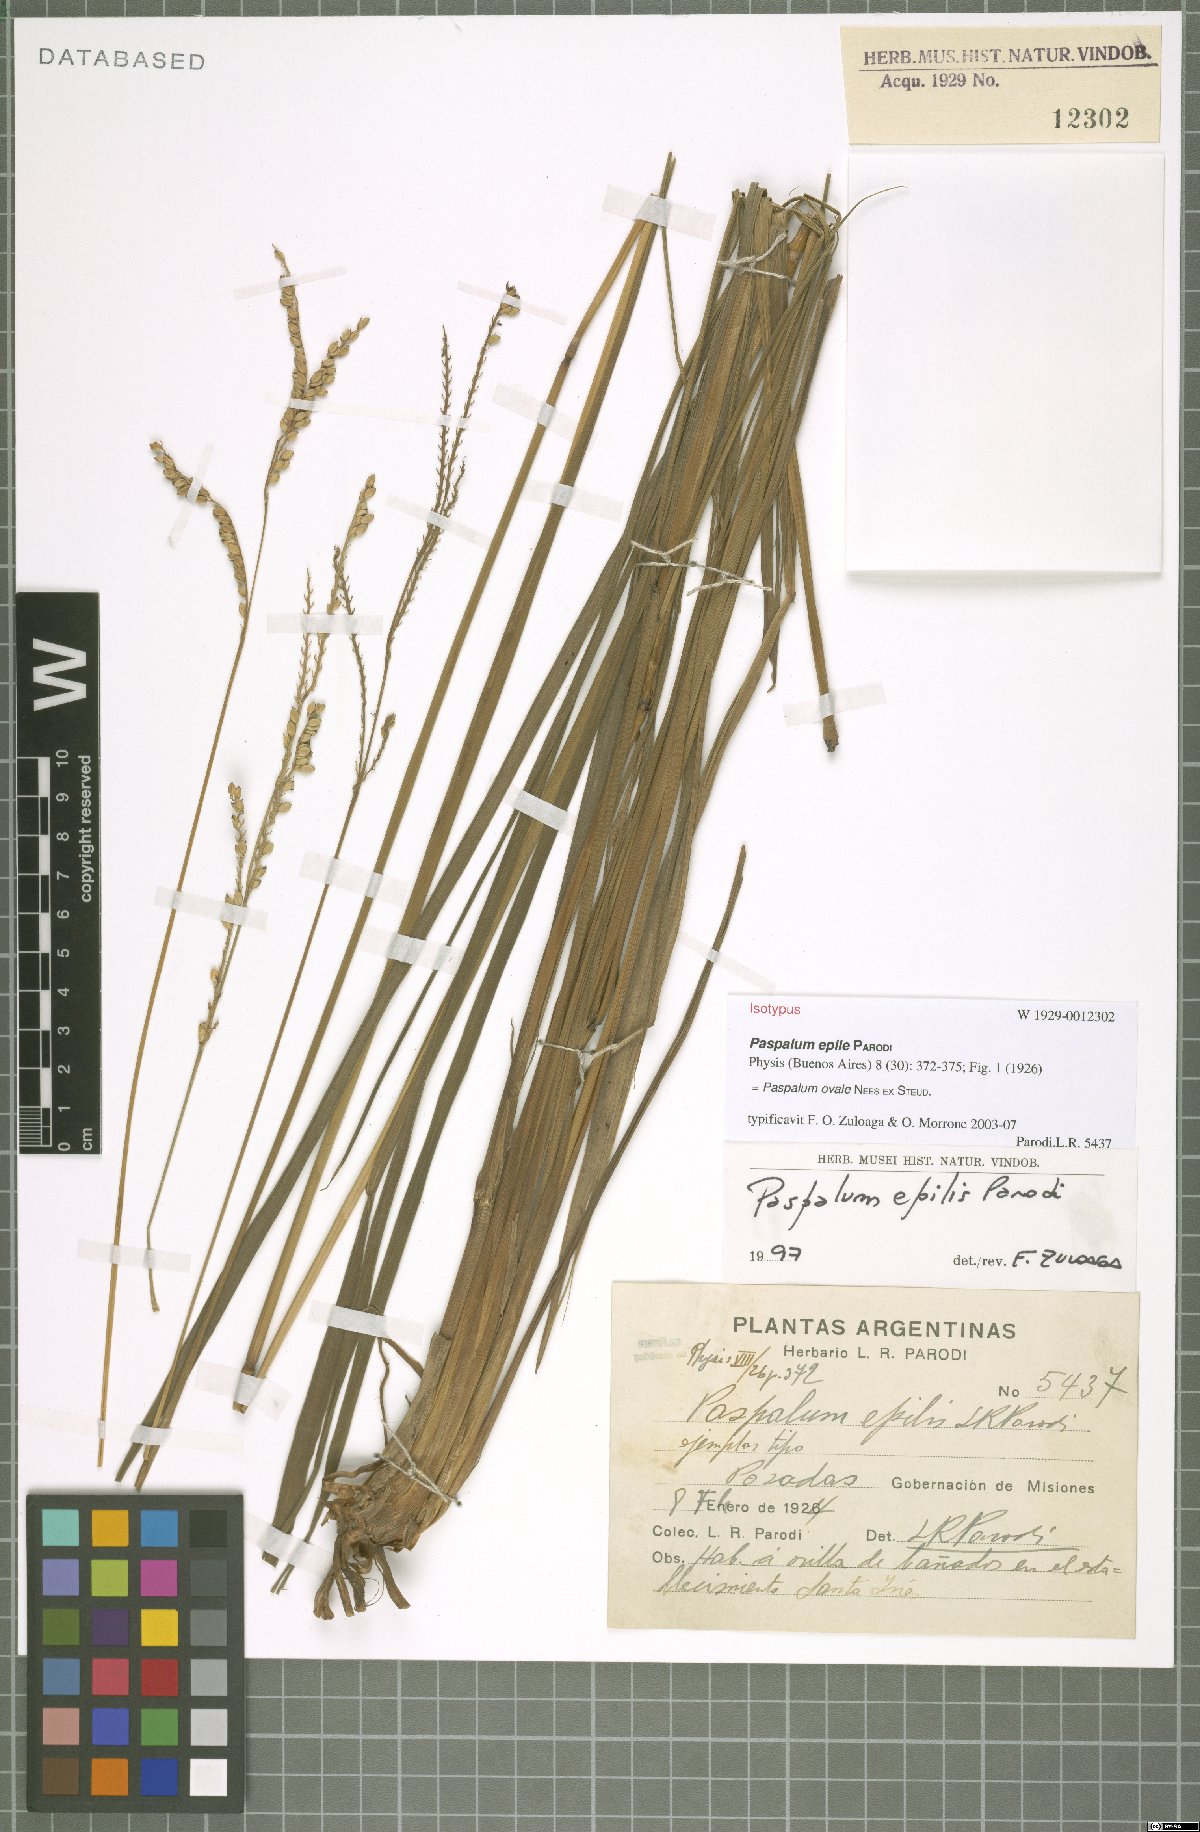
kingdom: Plantae
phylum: Tracheophyta
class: Liliopsida
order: Poales
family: Poaceae
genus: Paspalum
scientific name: Paspalum ovale
